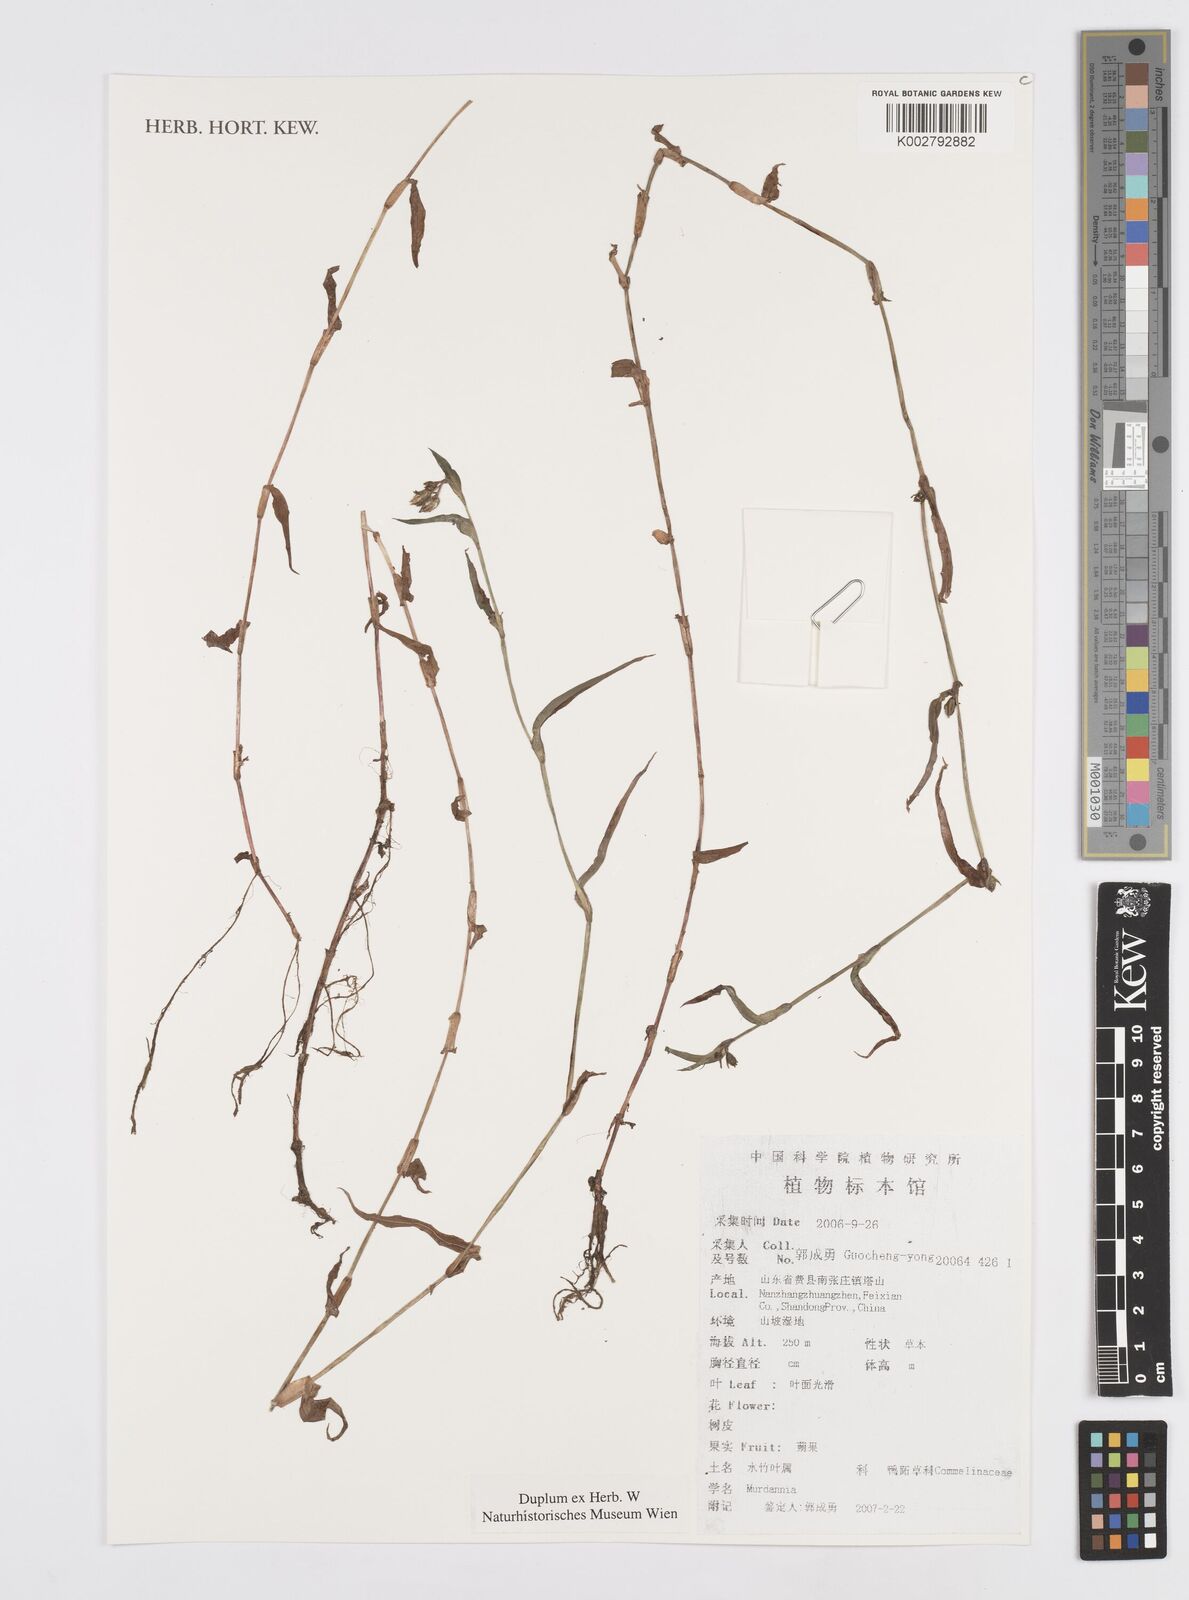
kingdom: Plantae
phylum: Tracheophyta
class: Liliopsida
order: Commelinales
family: Commelinaceae
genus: Murdannia
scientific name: Murdannia
